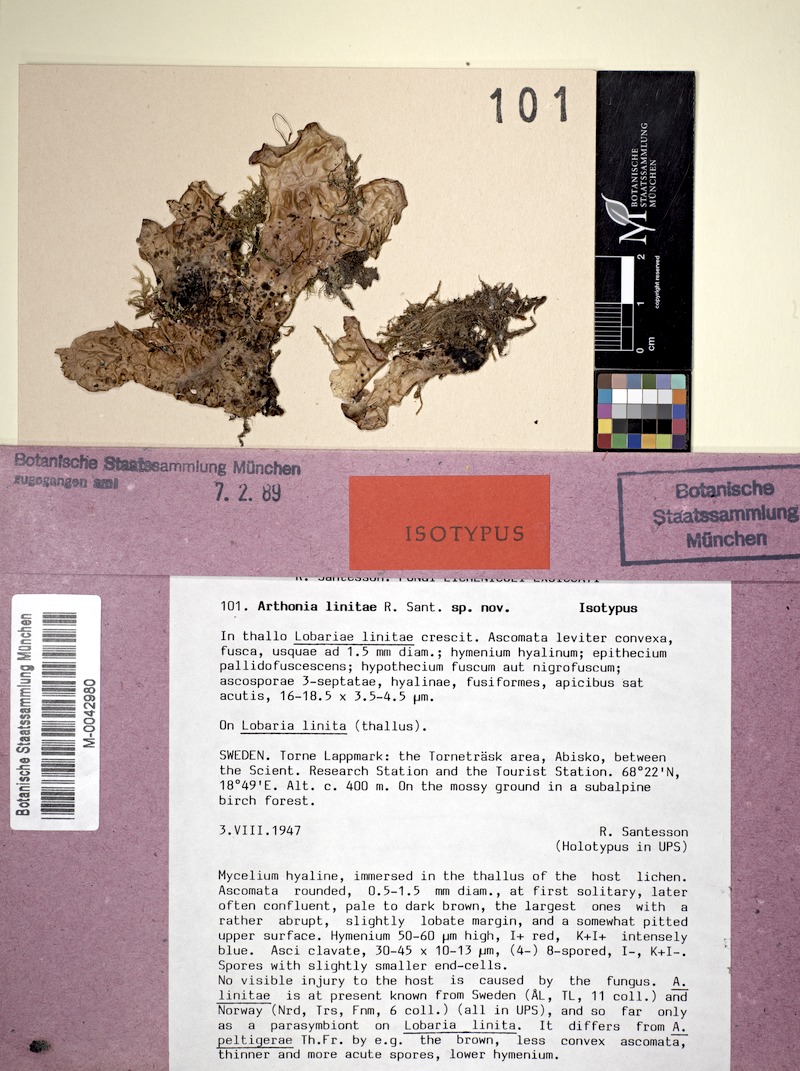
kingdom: Fungi
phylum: Ascomycota
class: Lecanoromycetes
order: Peltigerales
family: Lobariaceae
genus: Lobaria
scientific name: Lobaria linita
